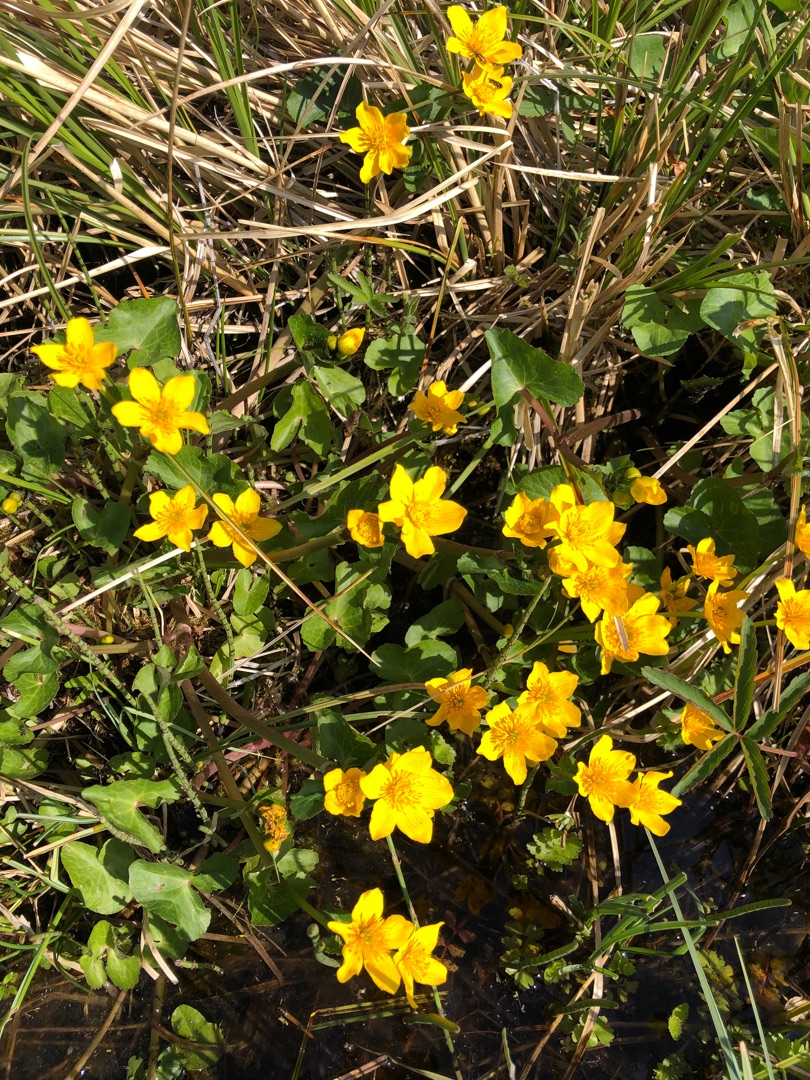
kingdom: Plantae
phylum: Tracheophyta
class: Magnoliopsida
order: Ranunculales
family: Ranunculaceae
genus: Caltha
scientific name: Caltha palustris
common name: Eng-kabbeleje
